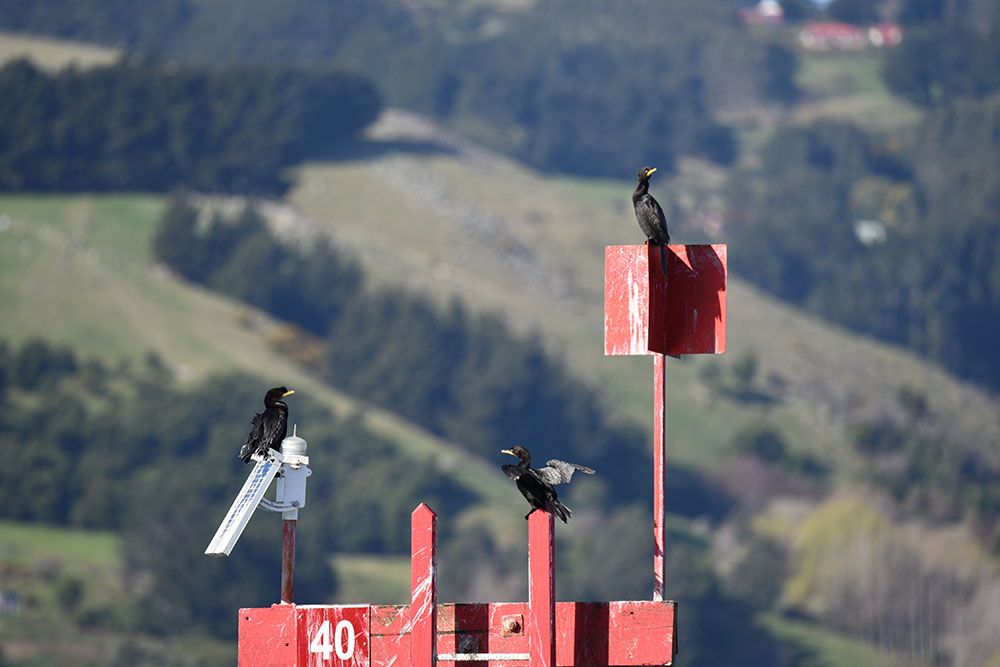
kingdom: Animalia
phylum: Chordata
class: Aves
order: Suliformes
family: Phalacrocoracidae
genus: Phalacrocorax
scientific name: Phalacrocorax carbo
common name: Great cormorant
